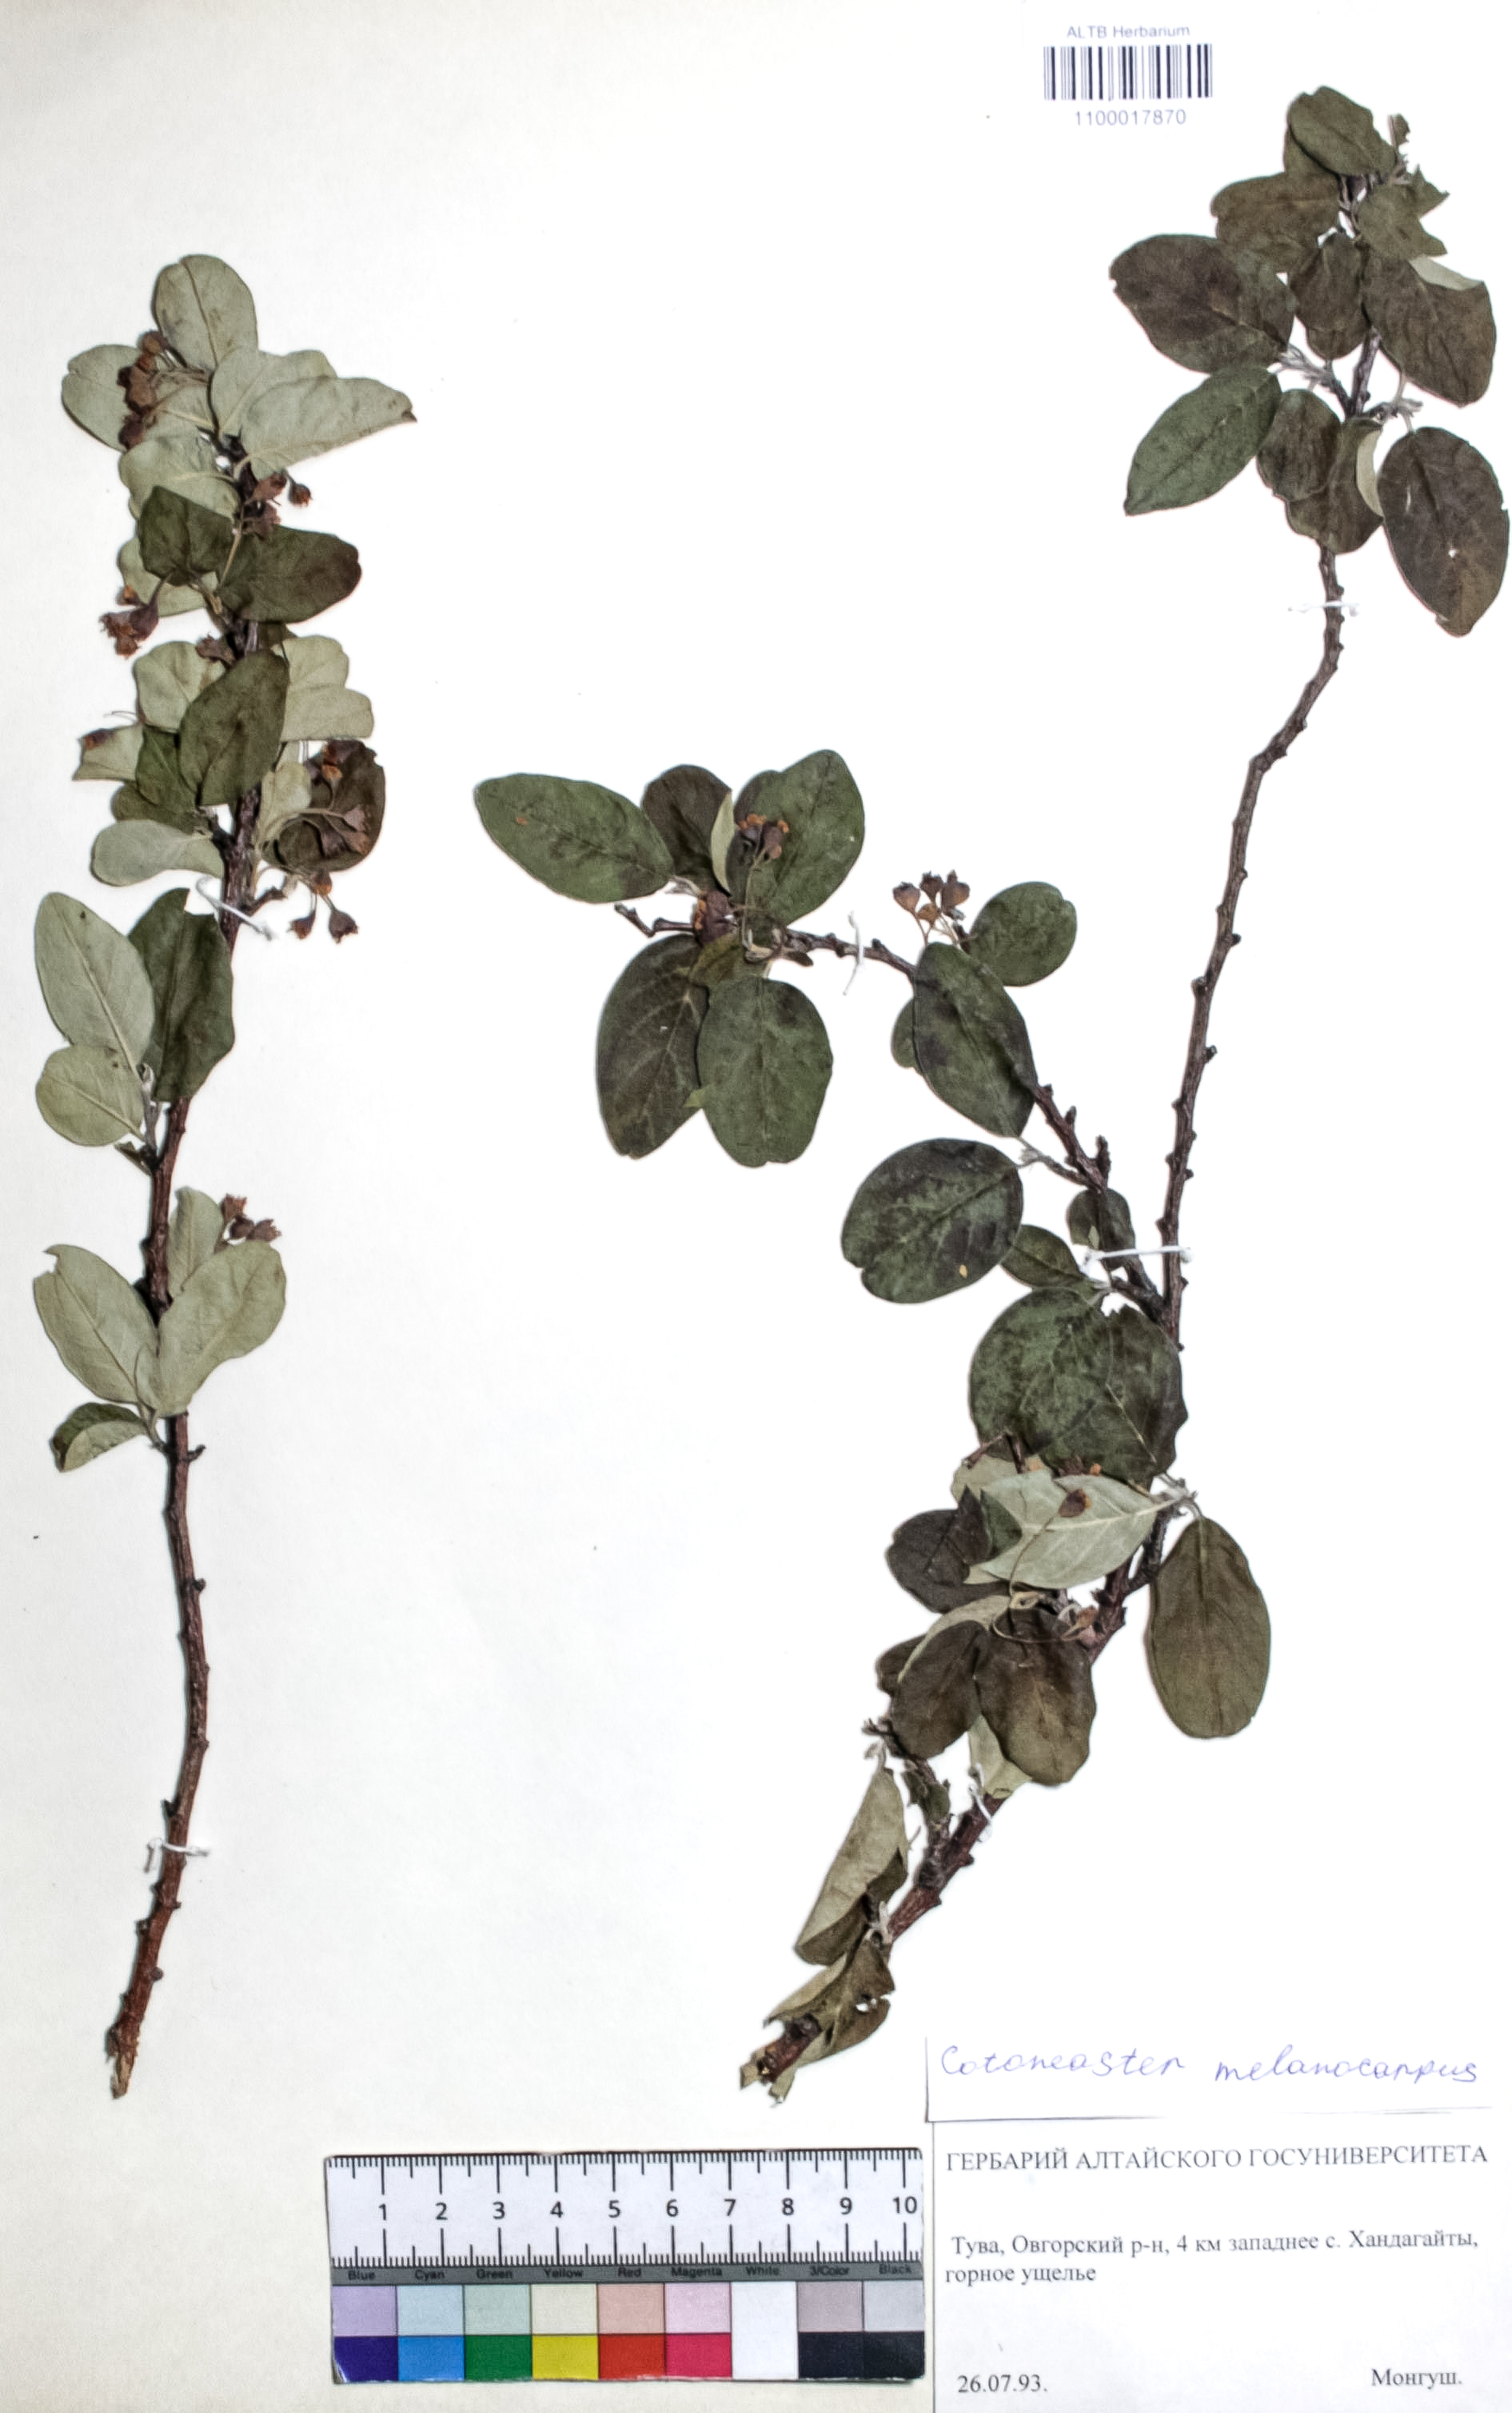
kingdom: Plantae
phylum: Tracheophyta
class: Magnoliopsida
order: Rosales
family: Rosaceae
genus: Cotoneaster
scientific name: Cotoneaster niger
